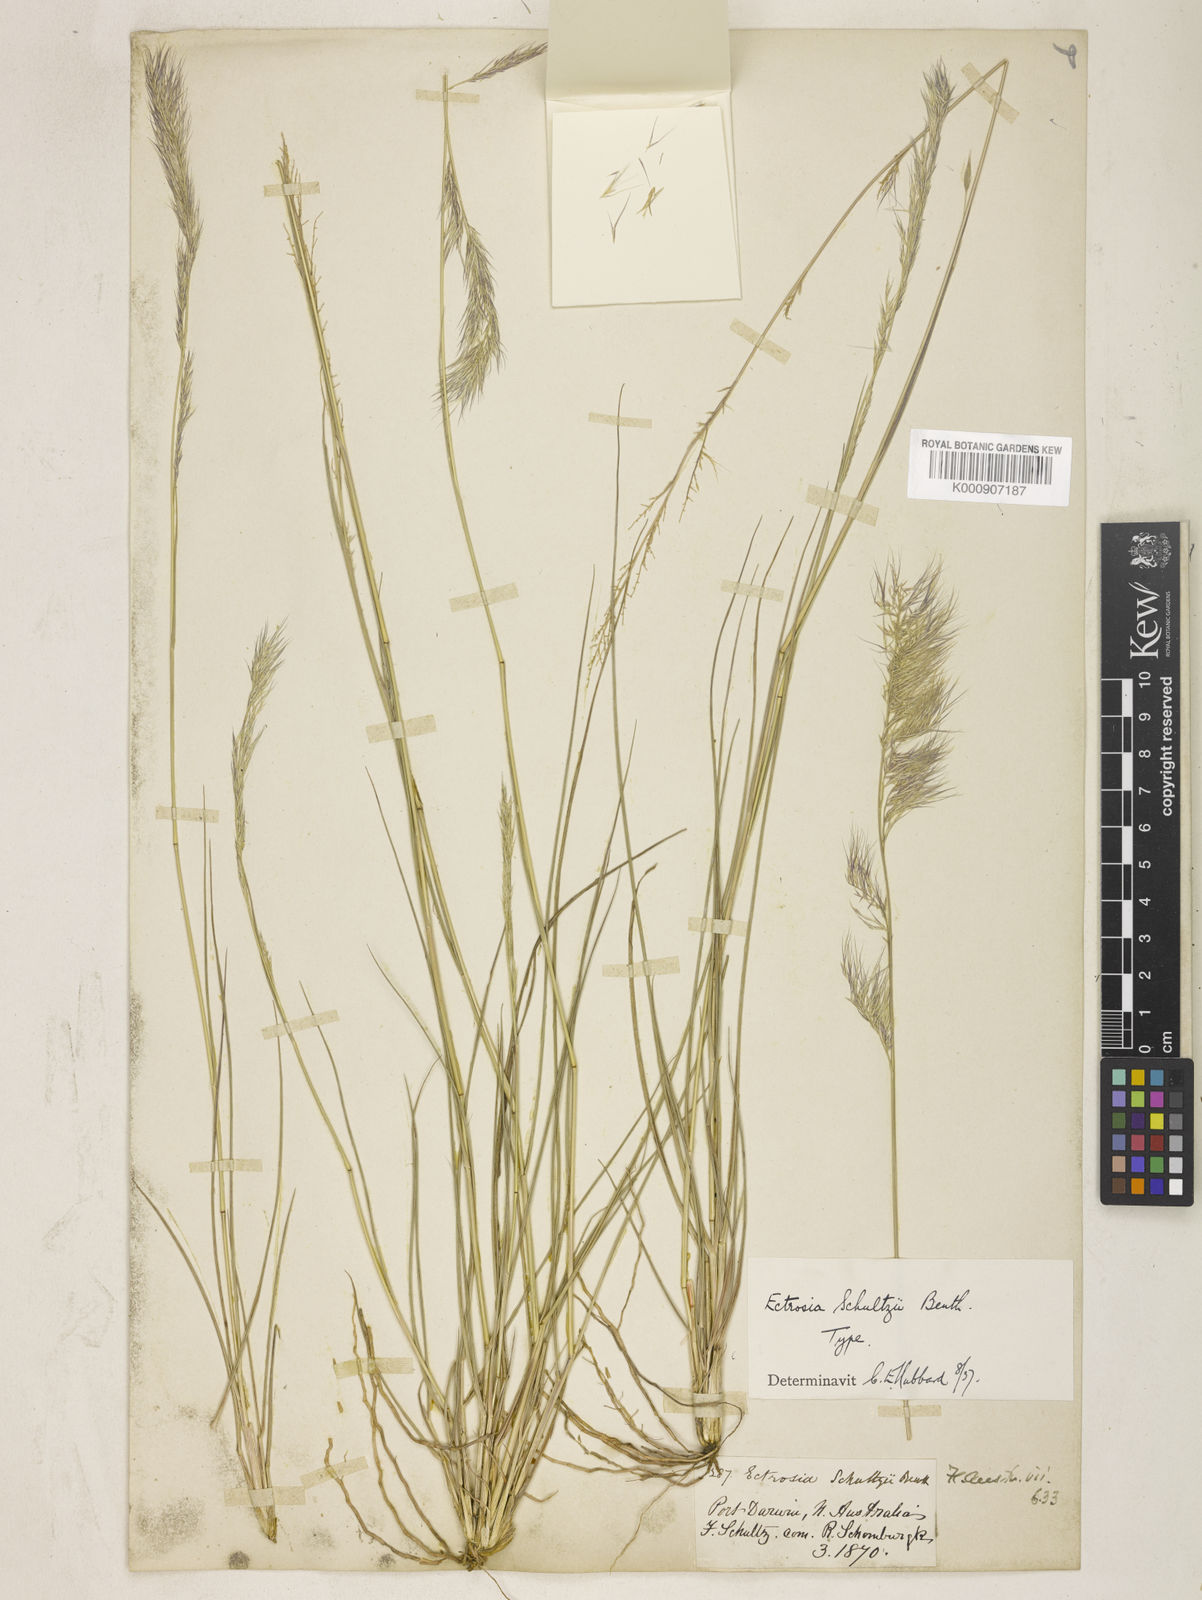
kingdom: Plantae
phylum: Tracheophyta
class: Liliopsida
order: Poales
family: Poaceae
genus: Eragrostis
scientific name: Eragrostis nightingaleae
